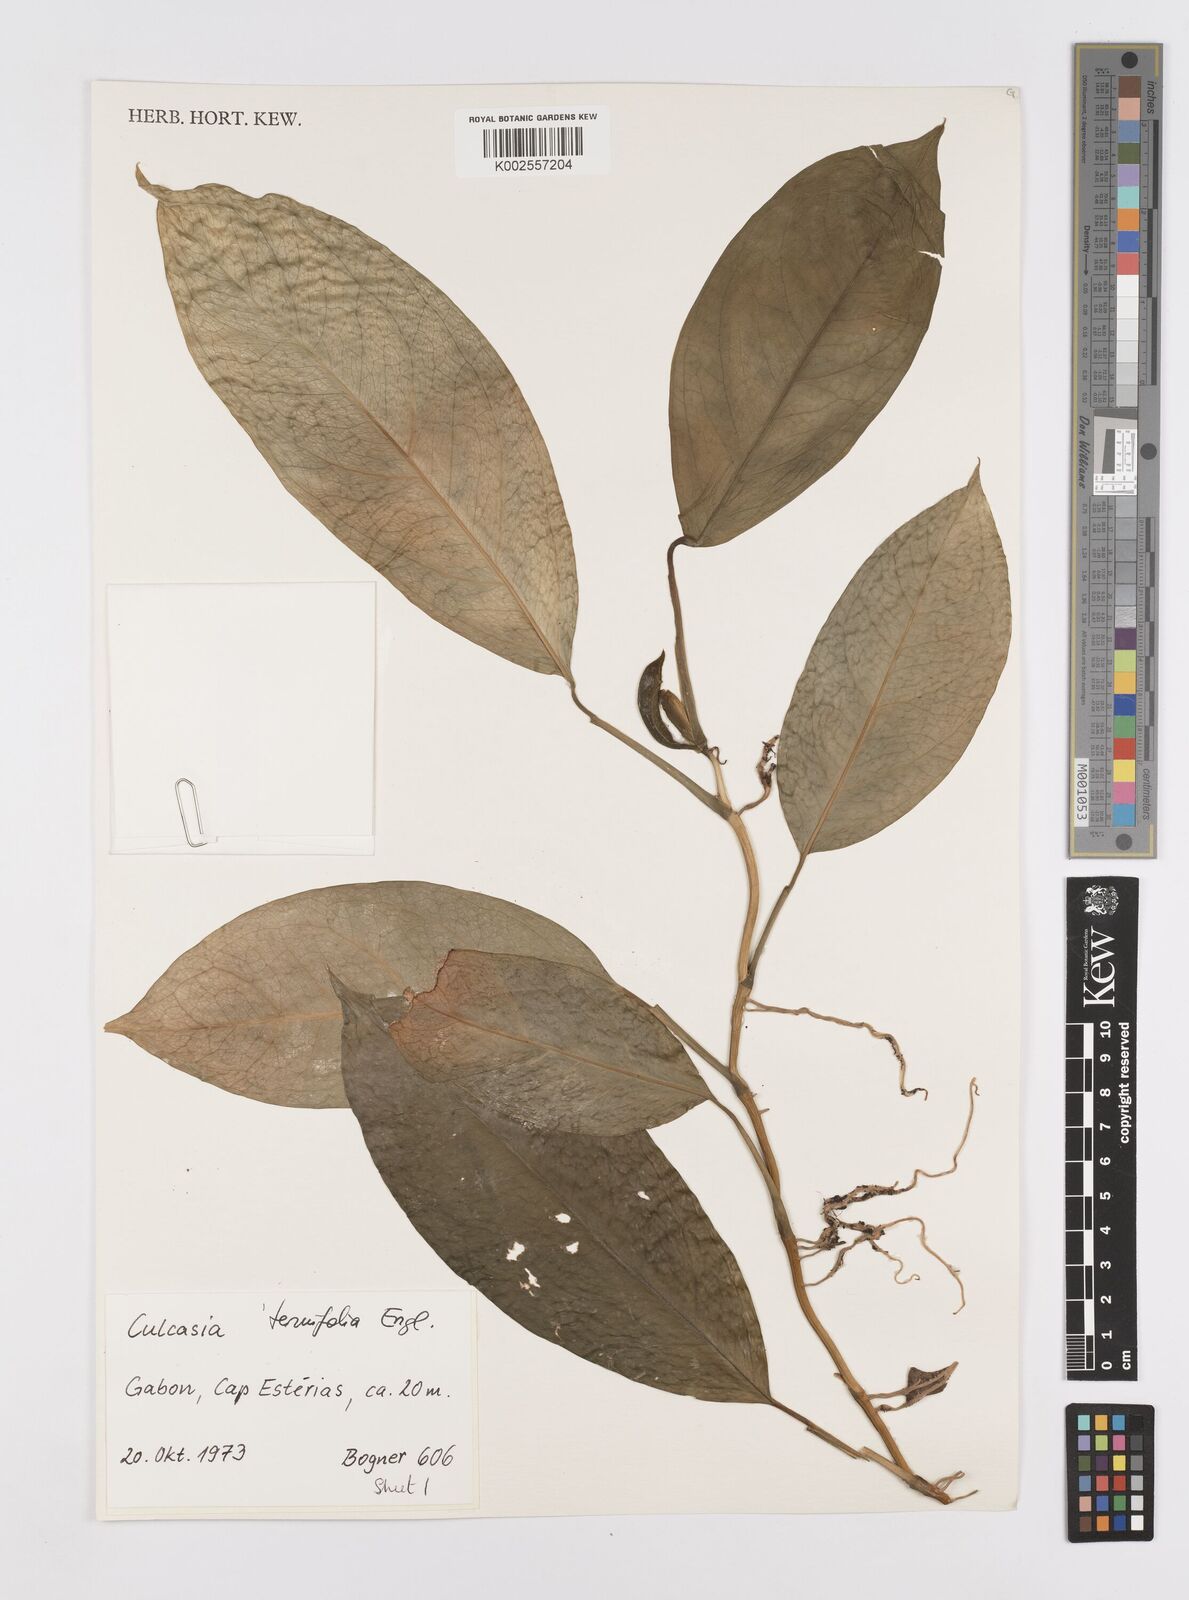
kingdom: Plantae
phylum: Tracheophyta
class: Liliopsida
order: Alismatales
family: Araceae
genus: Culcasia
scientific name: Culcasia tenuifolia
